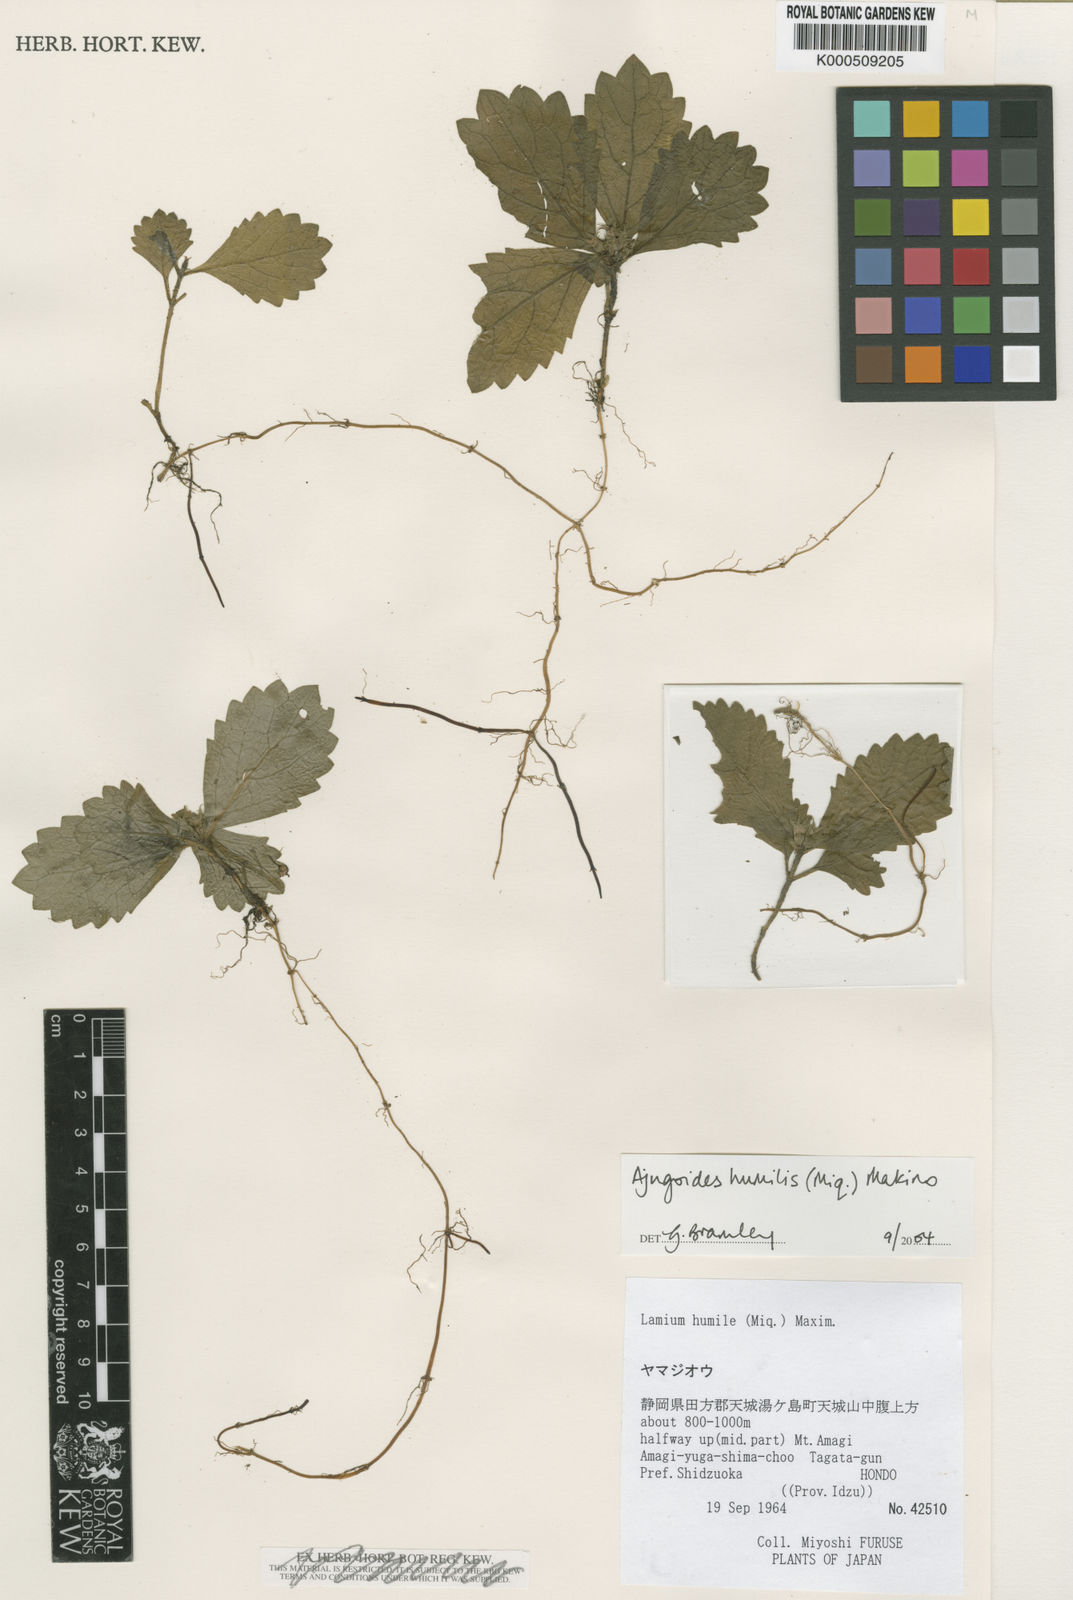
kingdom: Plantae
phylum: Tracheophyta
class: Magnoliopsida
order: Lamiales
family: Lamiaceae
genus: Ajugoides
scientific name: Ajugoides humilis
